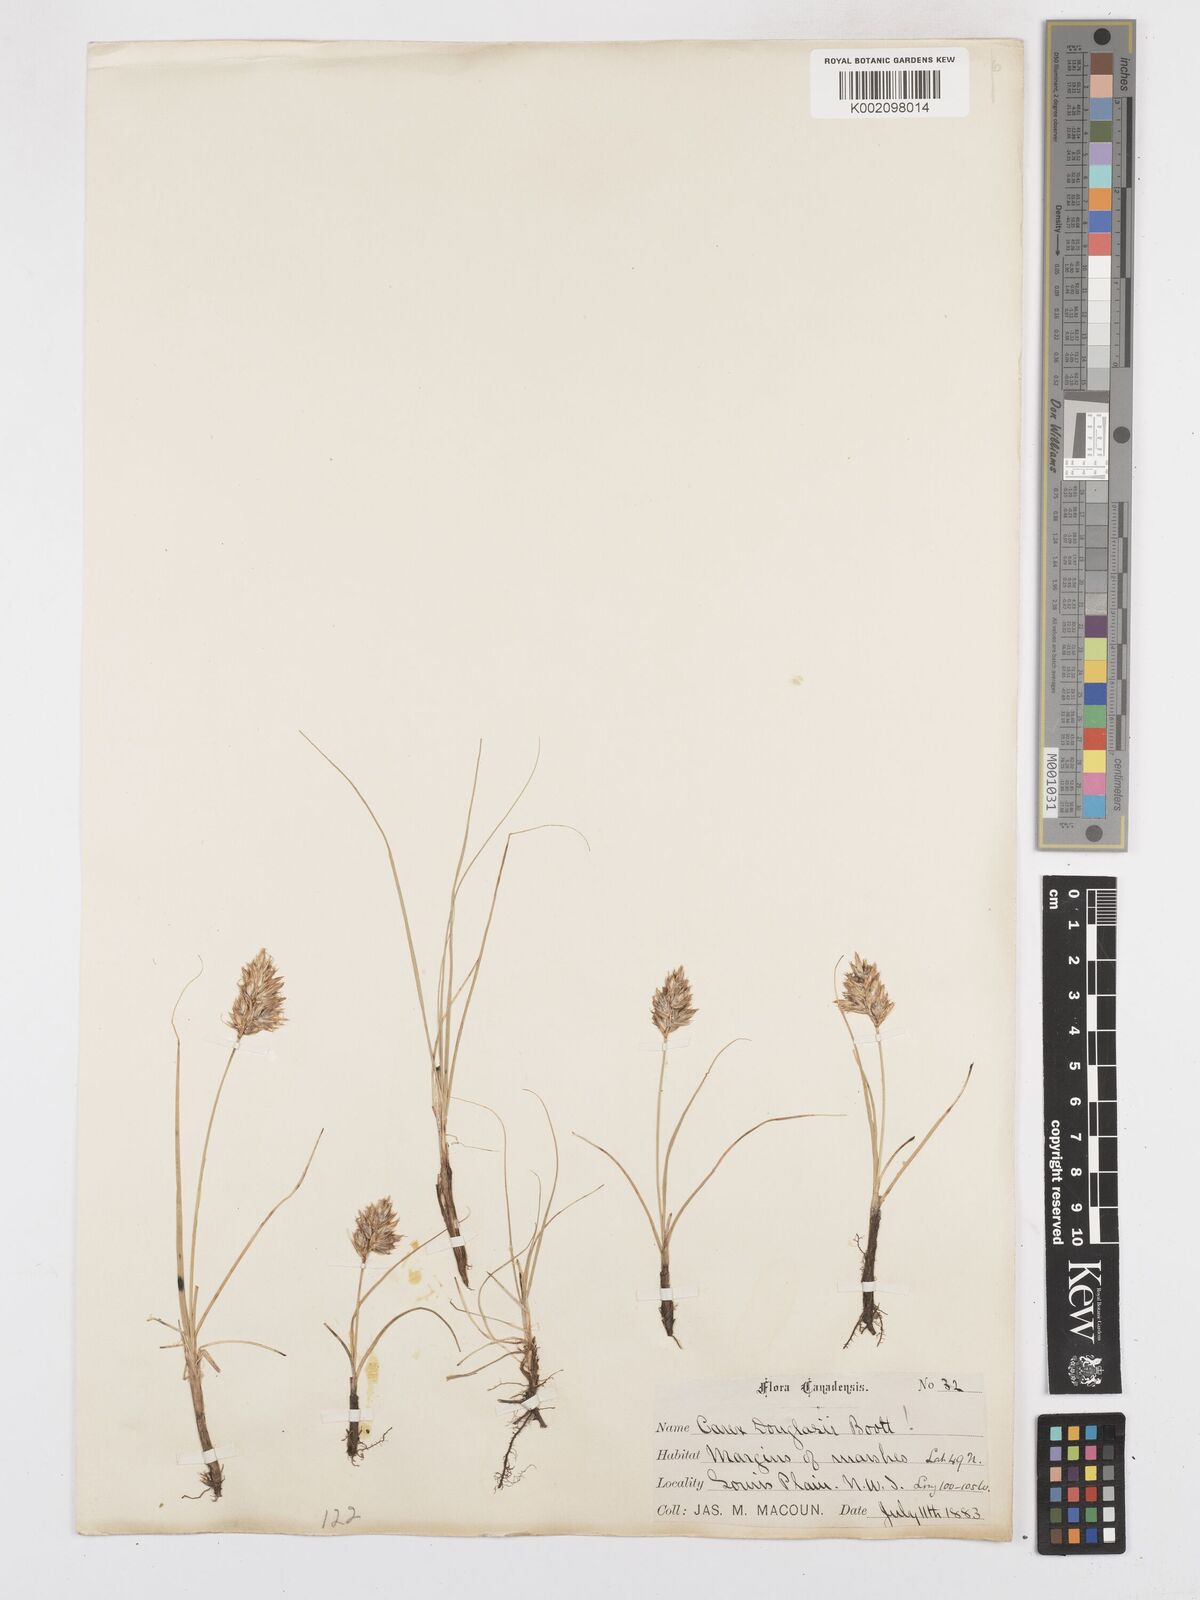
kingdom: Plantae
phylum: Tracheophyta
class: Liliopsida
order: Poales
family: Cyperaceae
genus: Carex
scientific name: Carex douglasii
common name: Douglas' sedge
